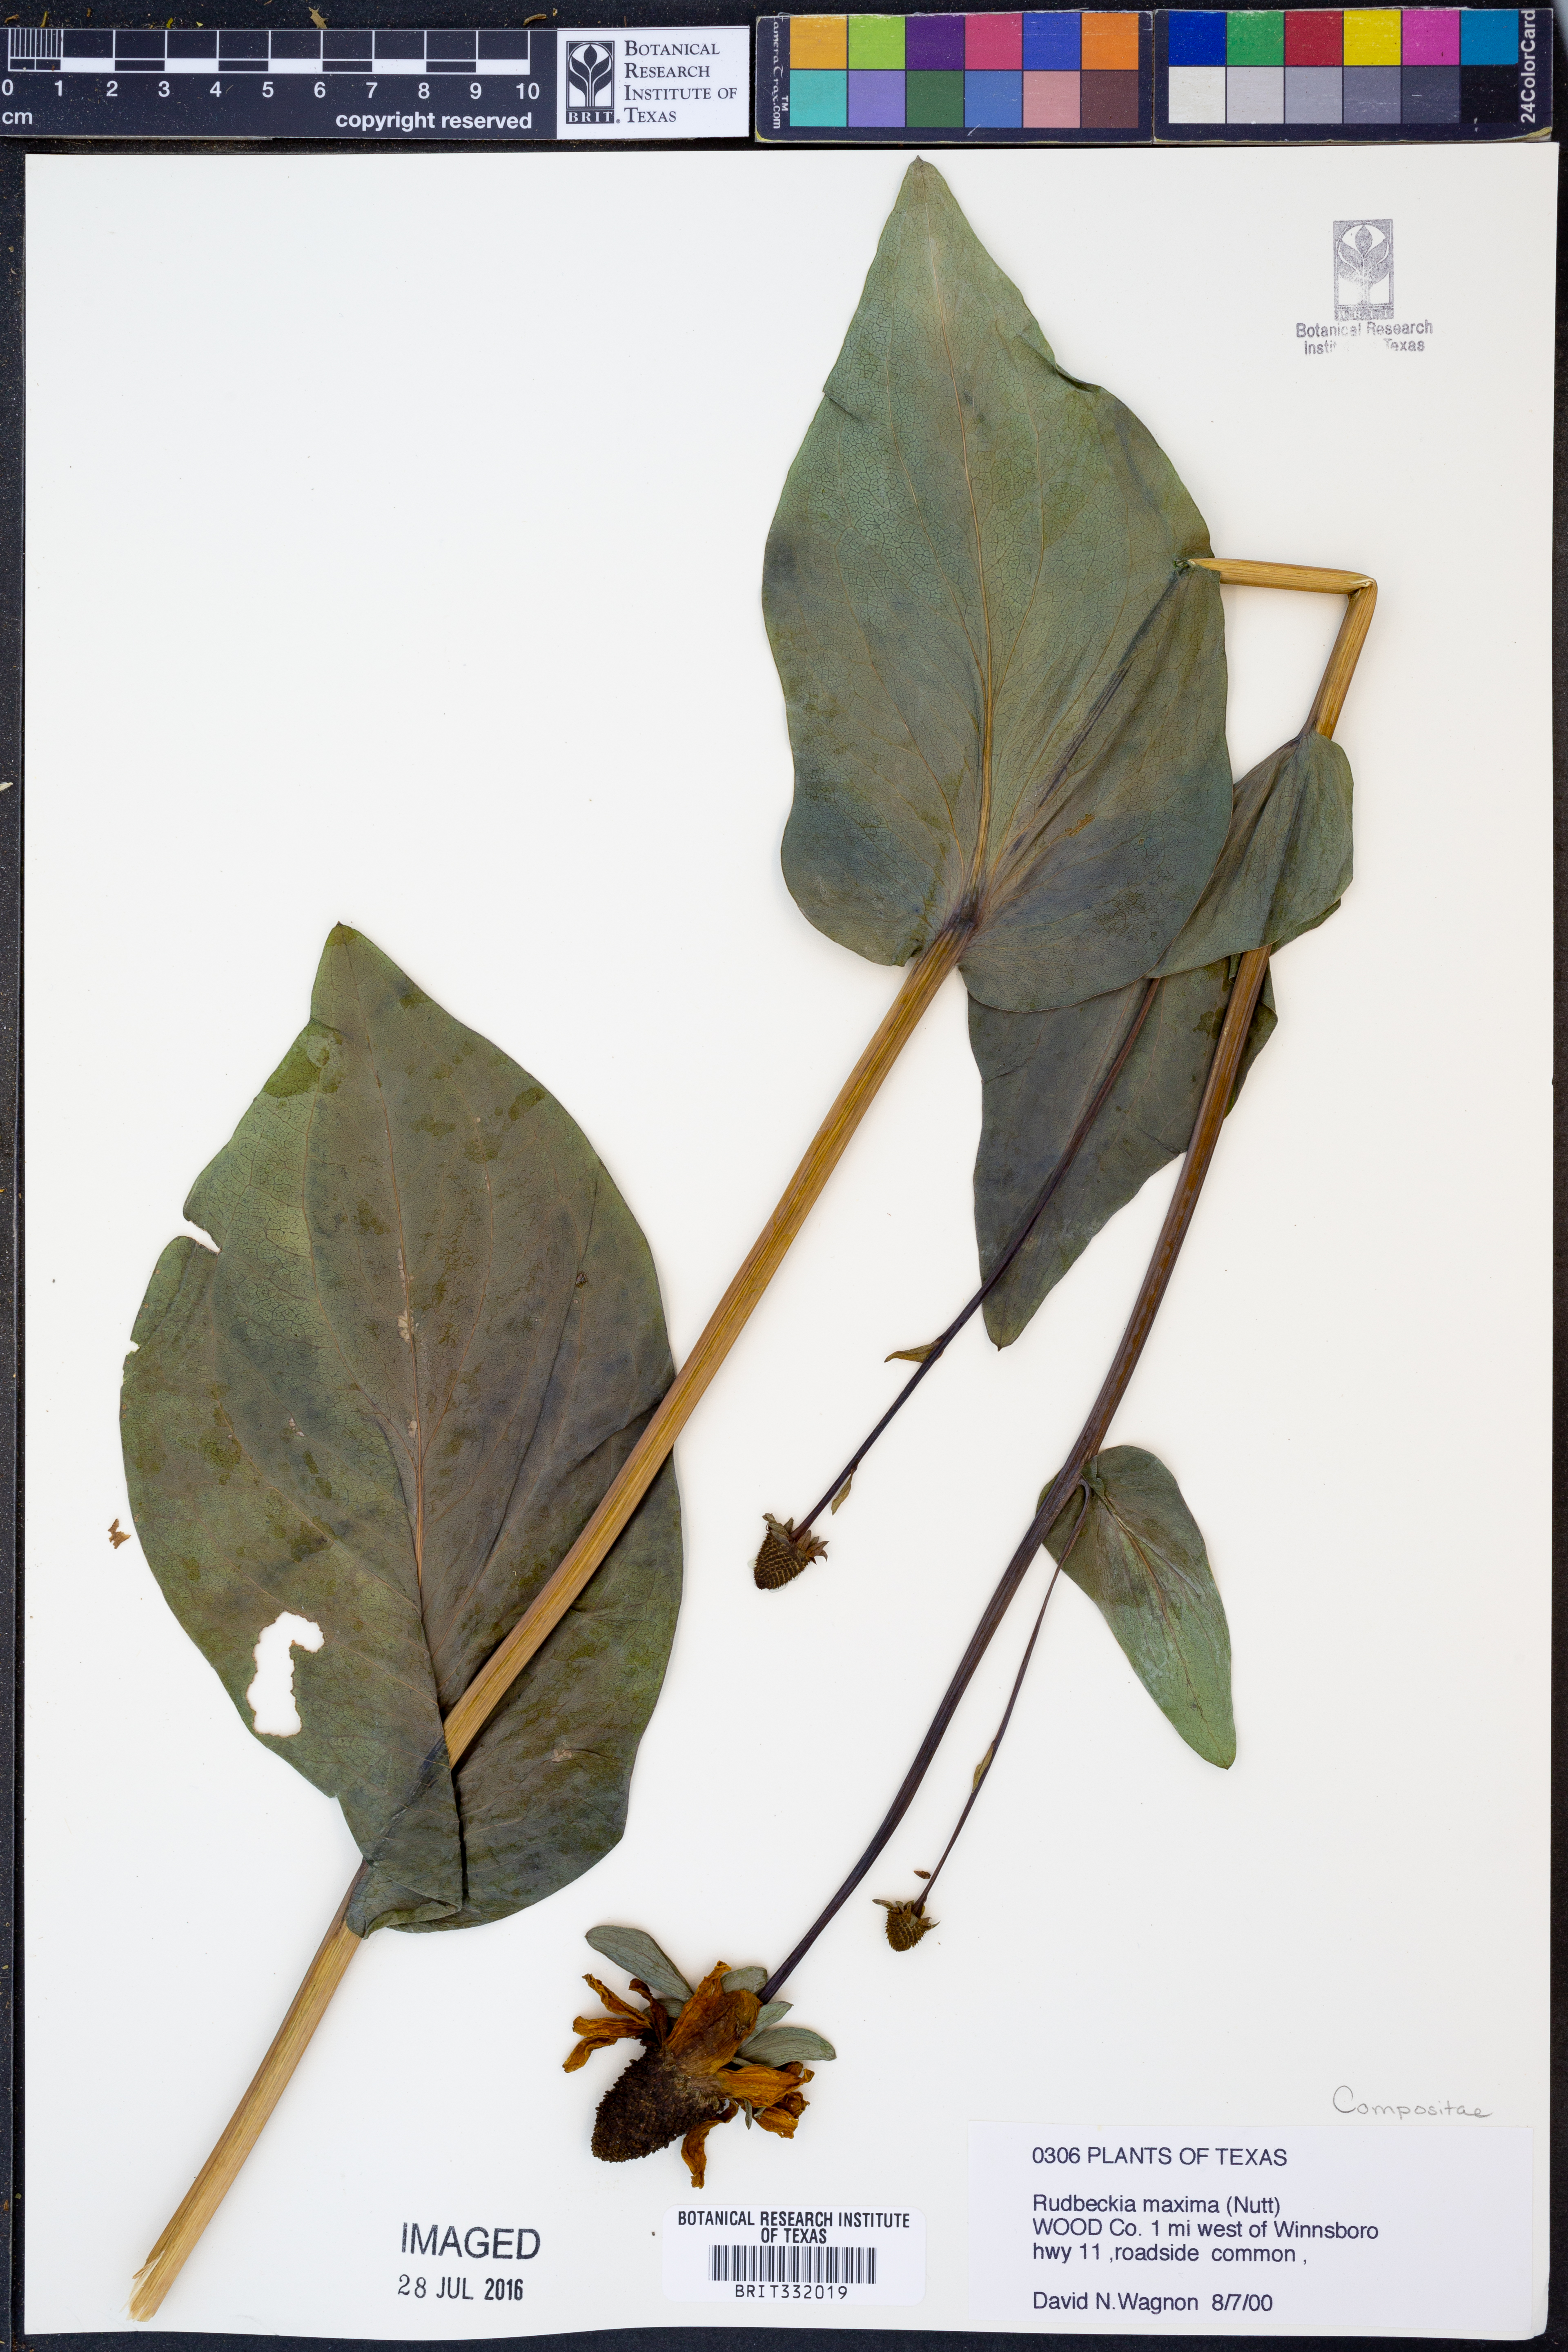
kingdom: Plantae
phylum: Tracheophyta
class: Magnoliopsida
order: Asterales
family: Asteraceae
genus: Rudbeckia
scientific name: Rudbeckia maxima
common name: Cabbage coneflower
